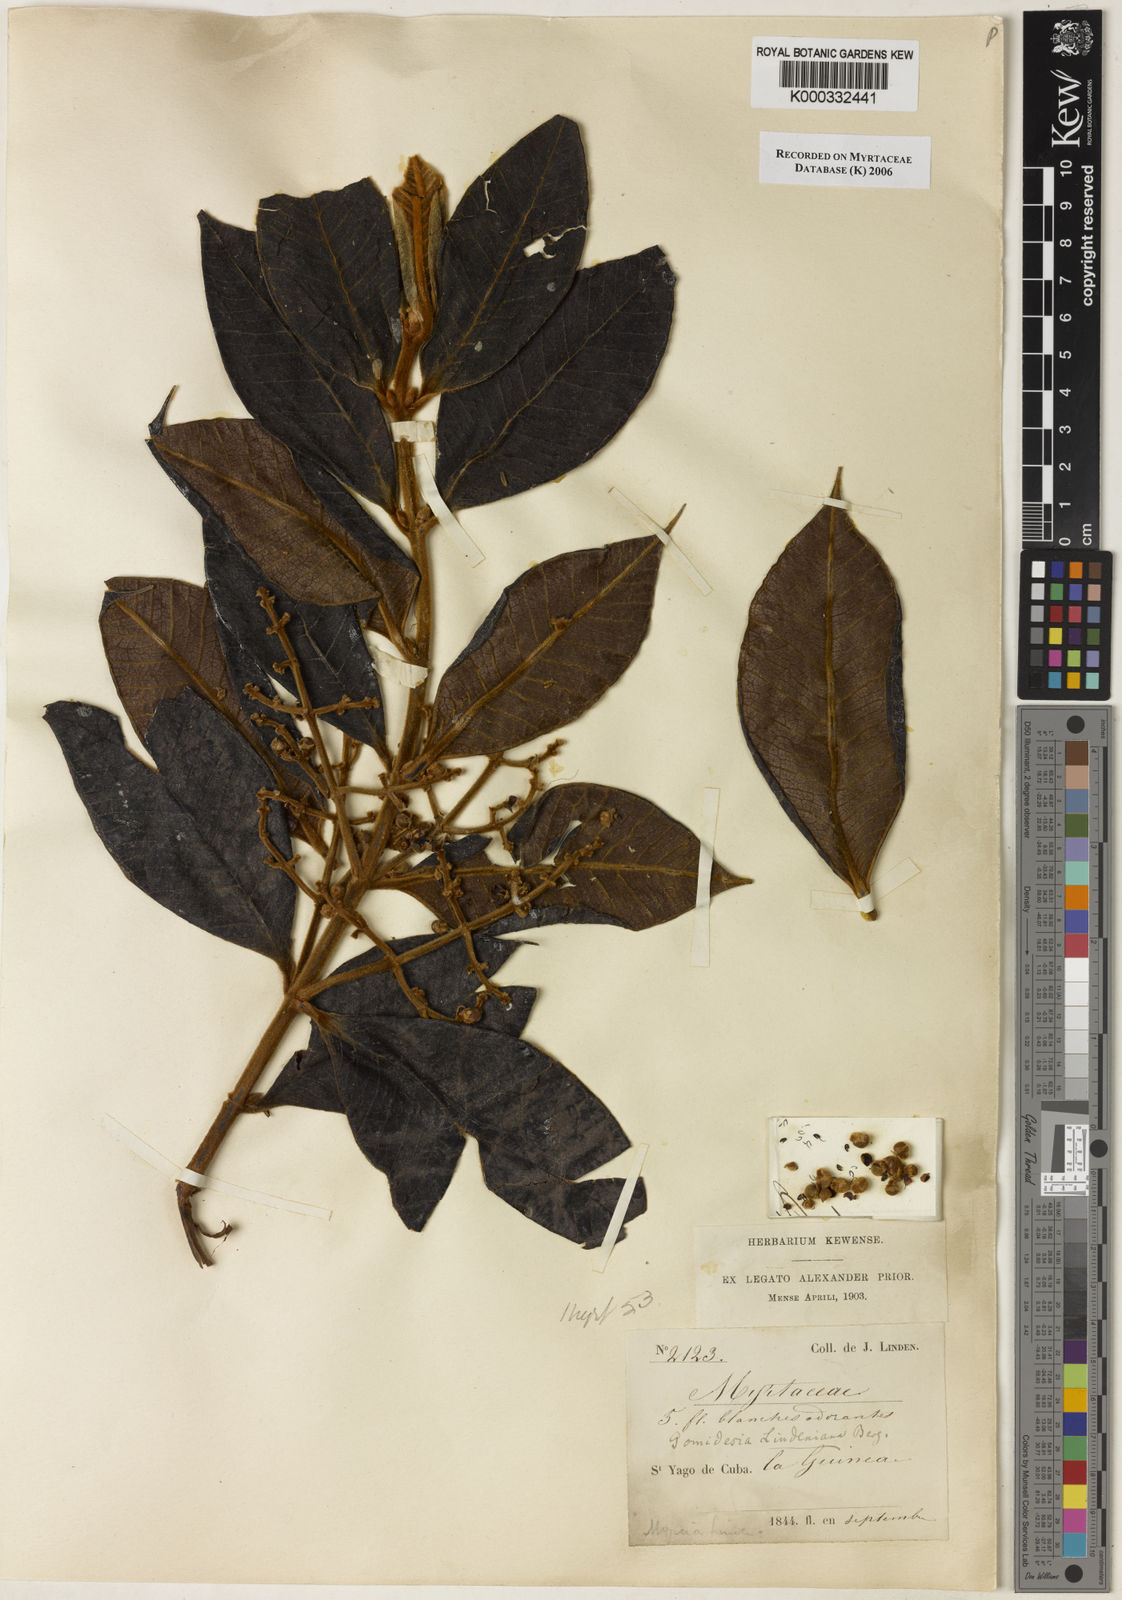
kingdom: Plantae
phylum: Tracheophyta
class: Magnoliopsida
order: Myrtales
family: Myrtaceae
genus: Myrcia
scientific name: Myrcia fenzliana
